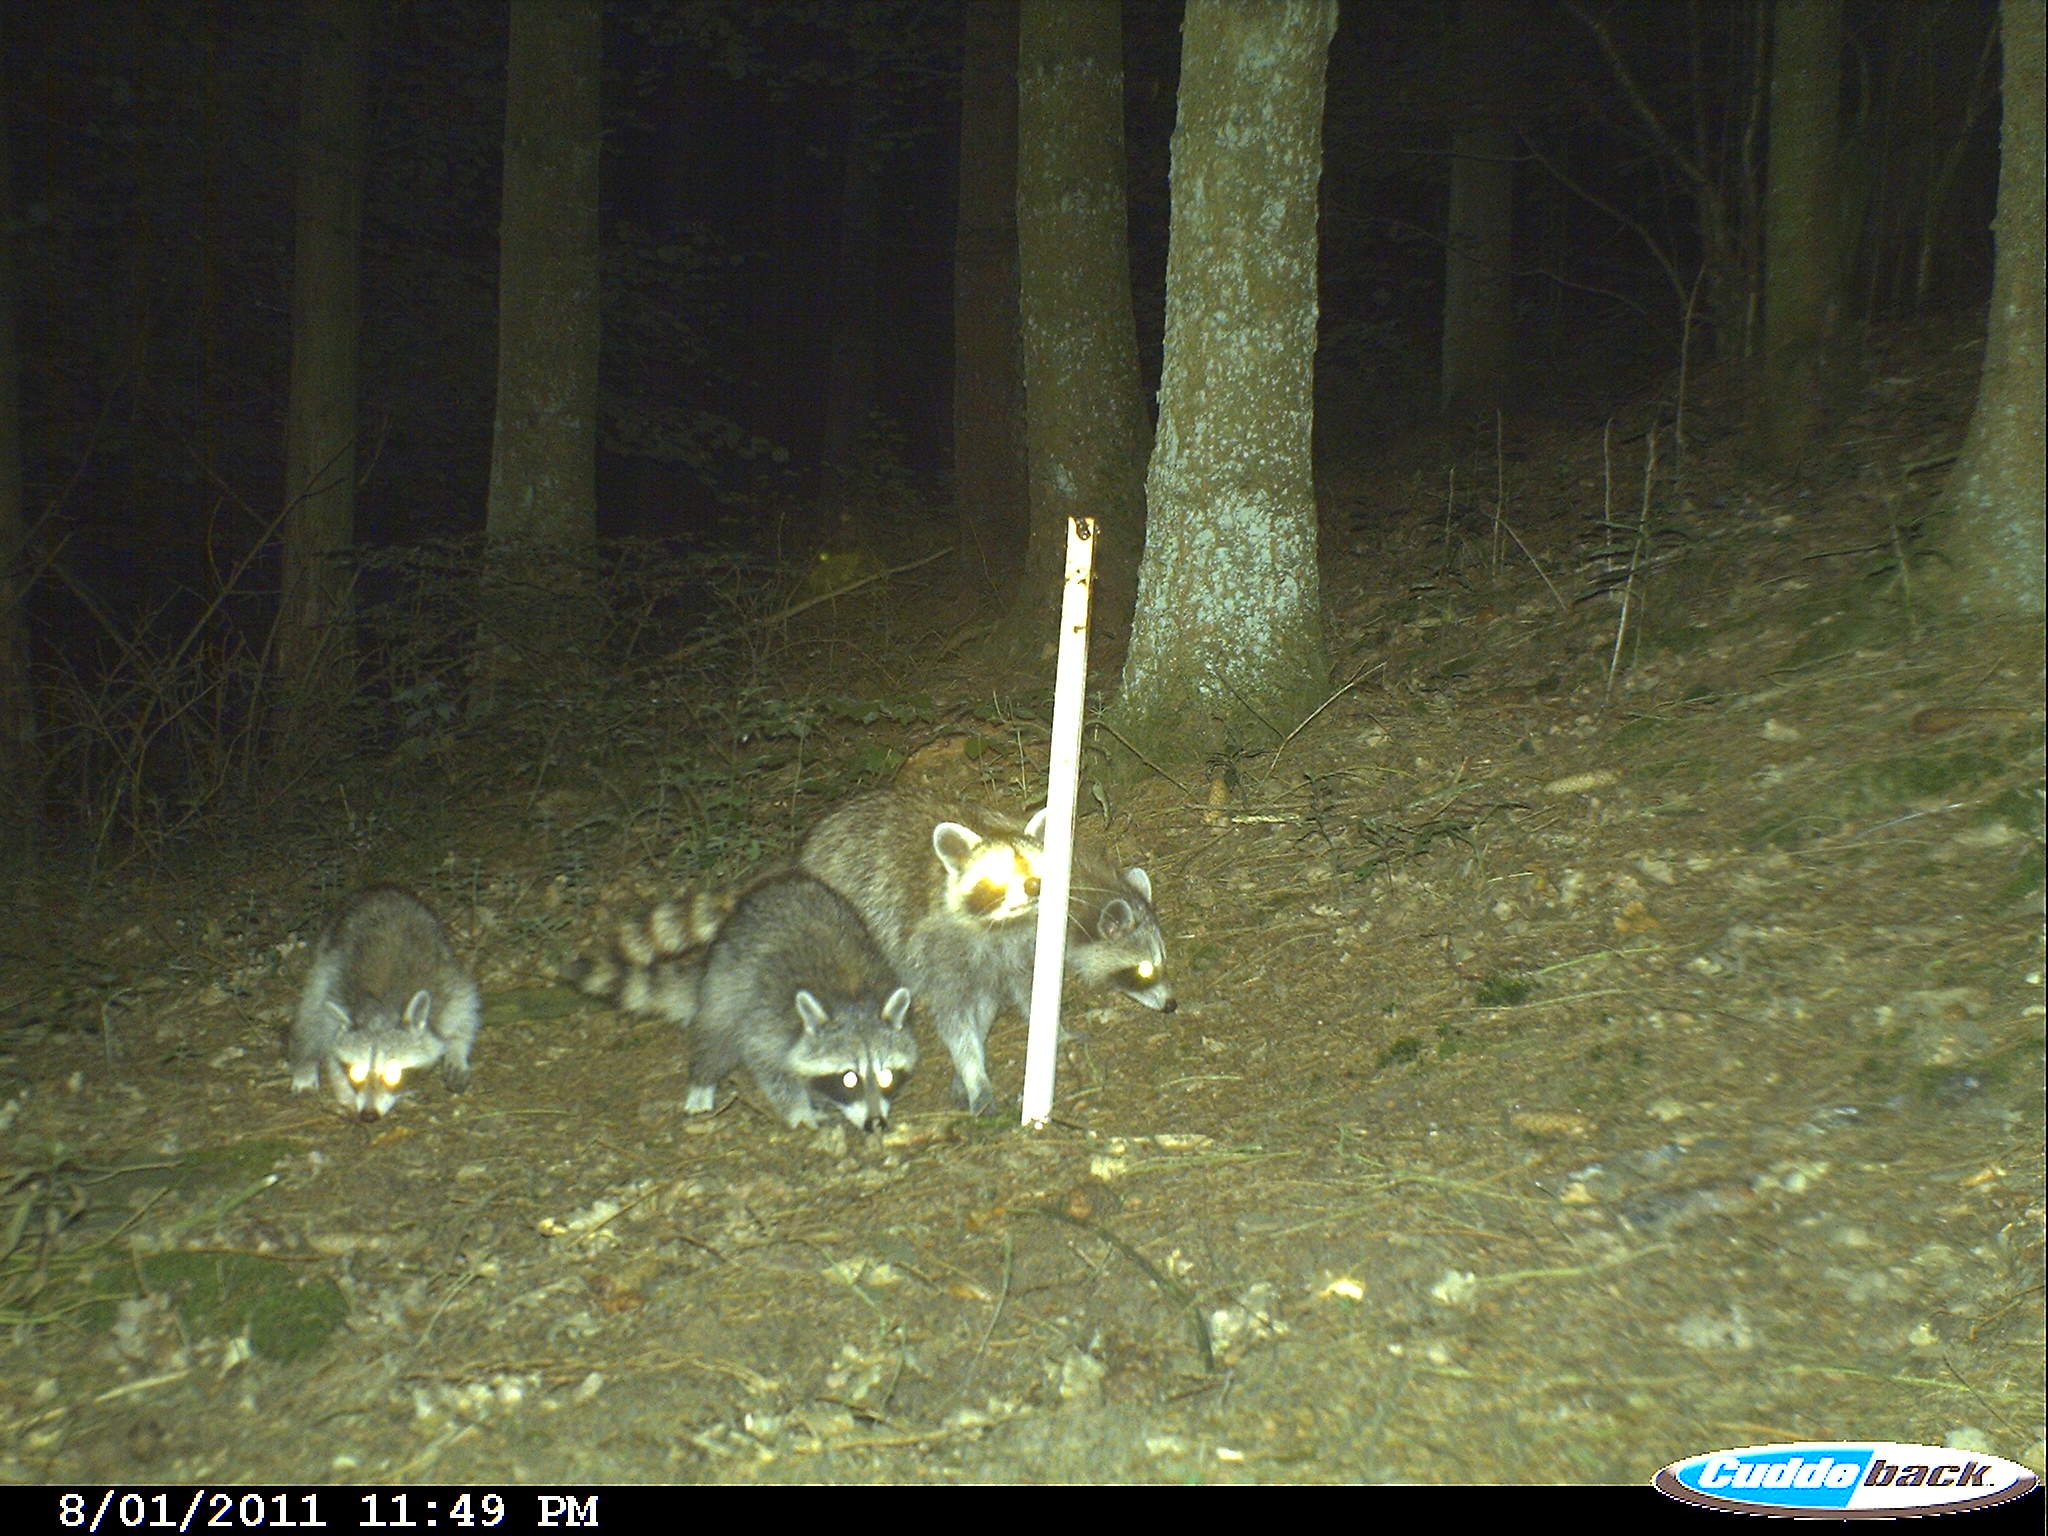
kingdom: Animalia
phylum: Chordata
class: Mammalia
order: Carnivora
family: Procyonidae
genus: Procyon
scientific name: Procyon lotor
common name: Raccoon
